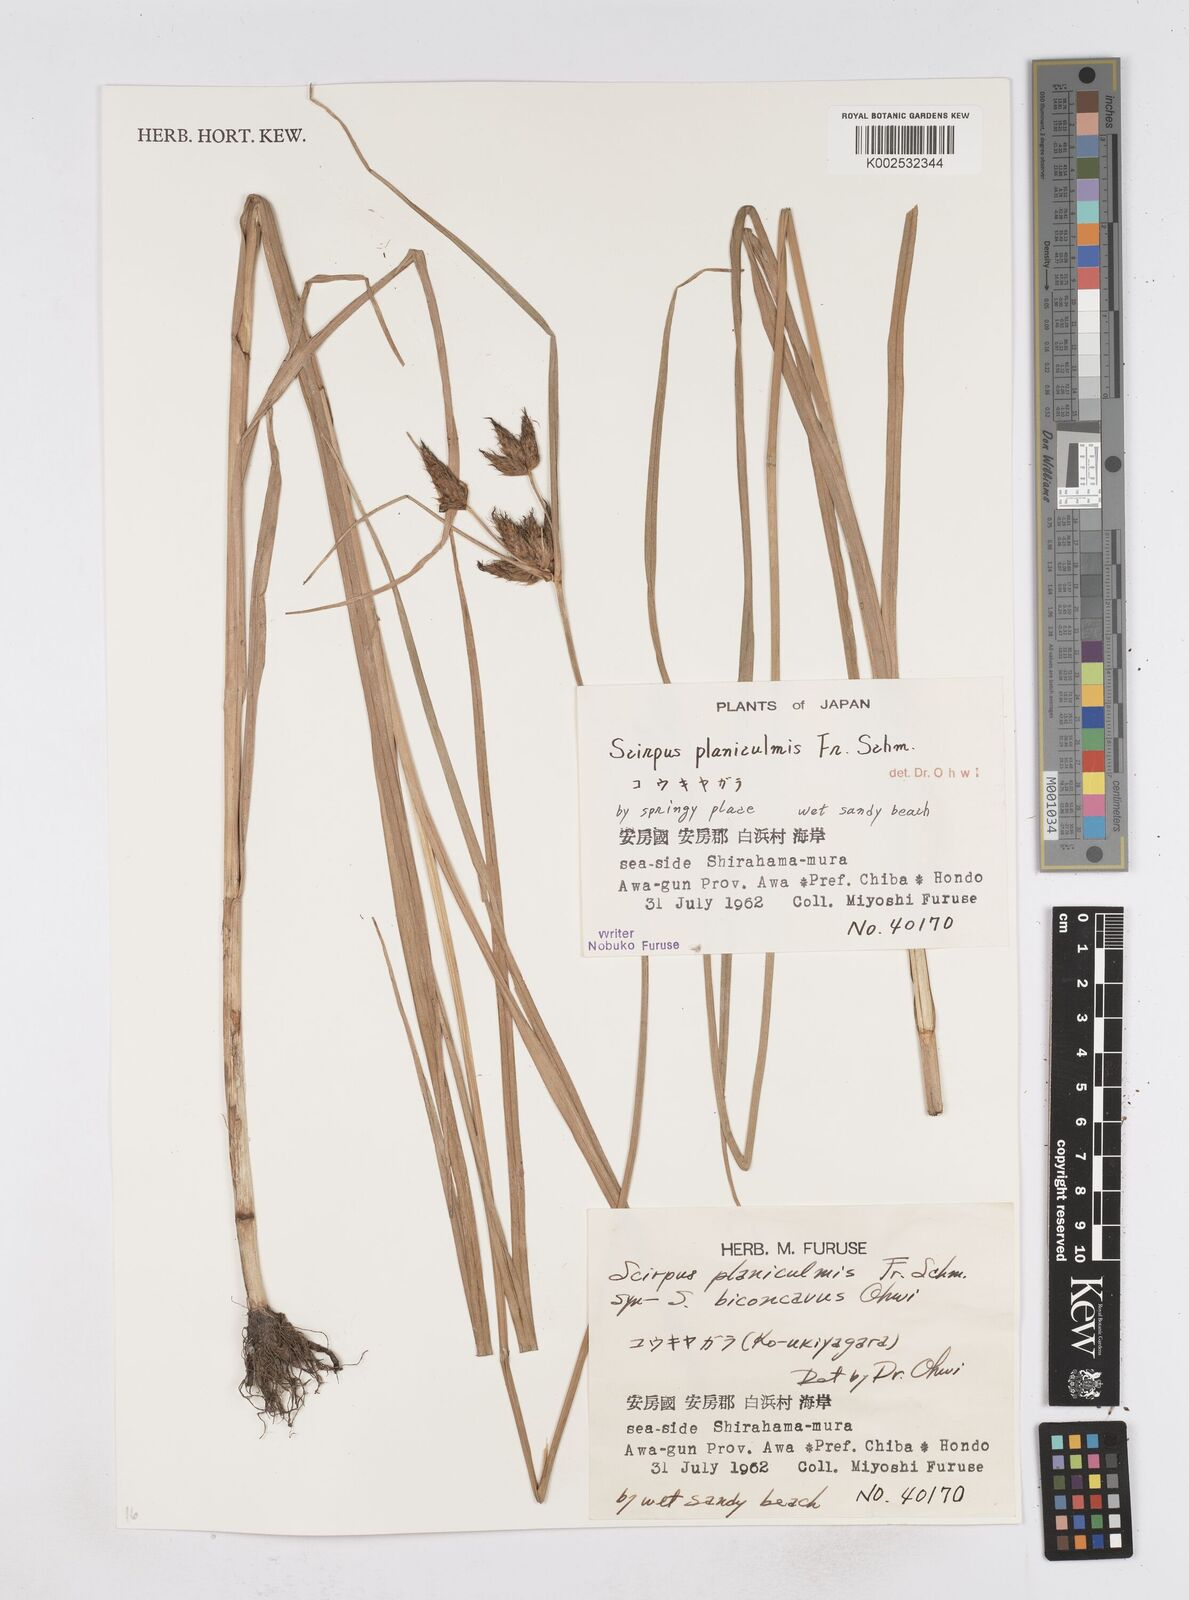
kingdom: Plantae
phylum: Tracheophyta
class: Liliopsida
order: Poales
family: Cyperaceae
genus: Bolboschoenus
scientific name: Bolboschoenus planiculmis
